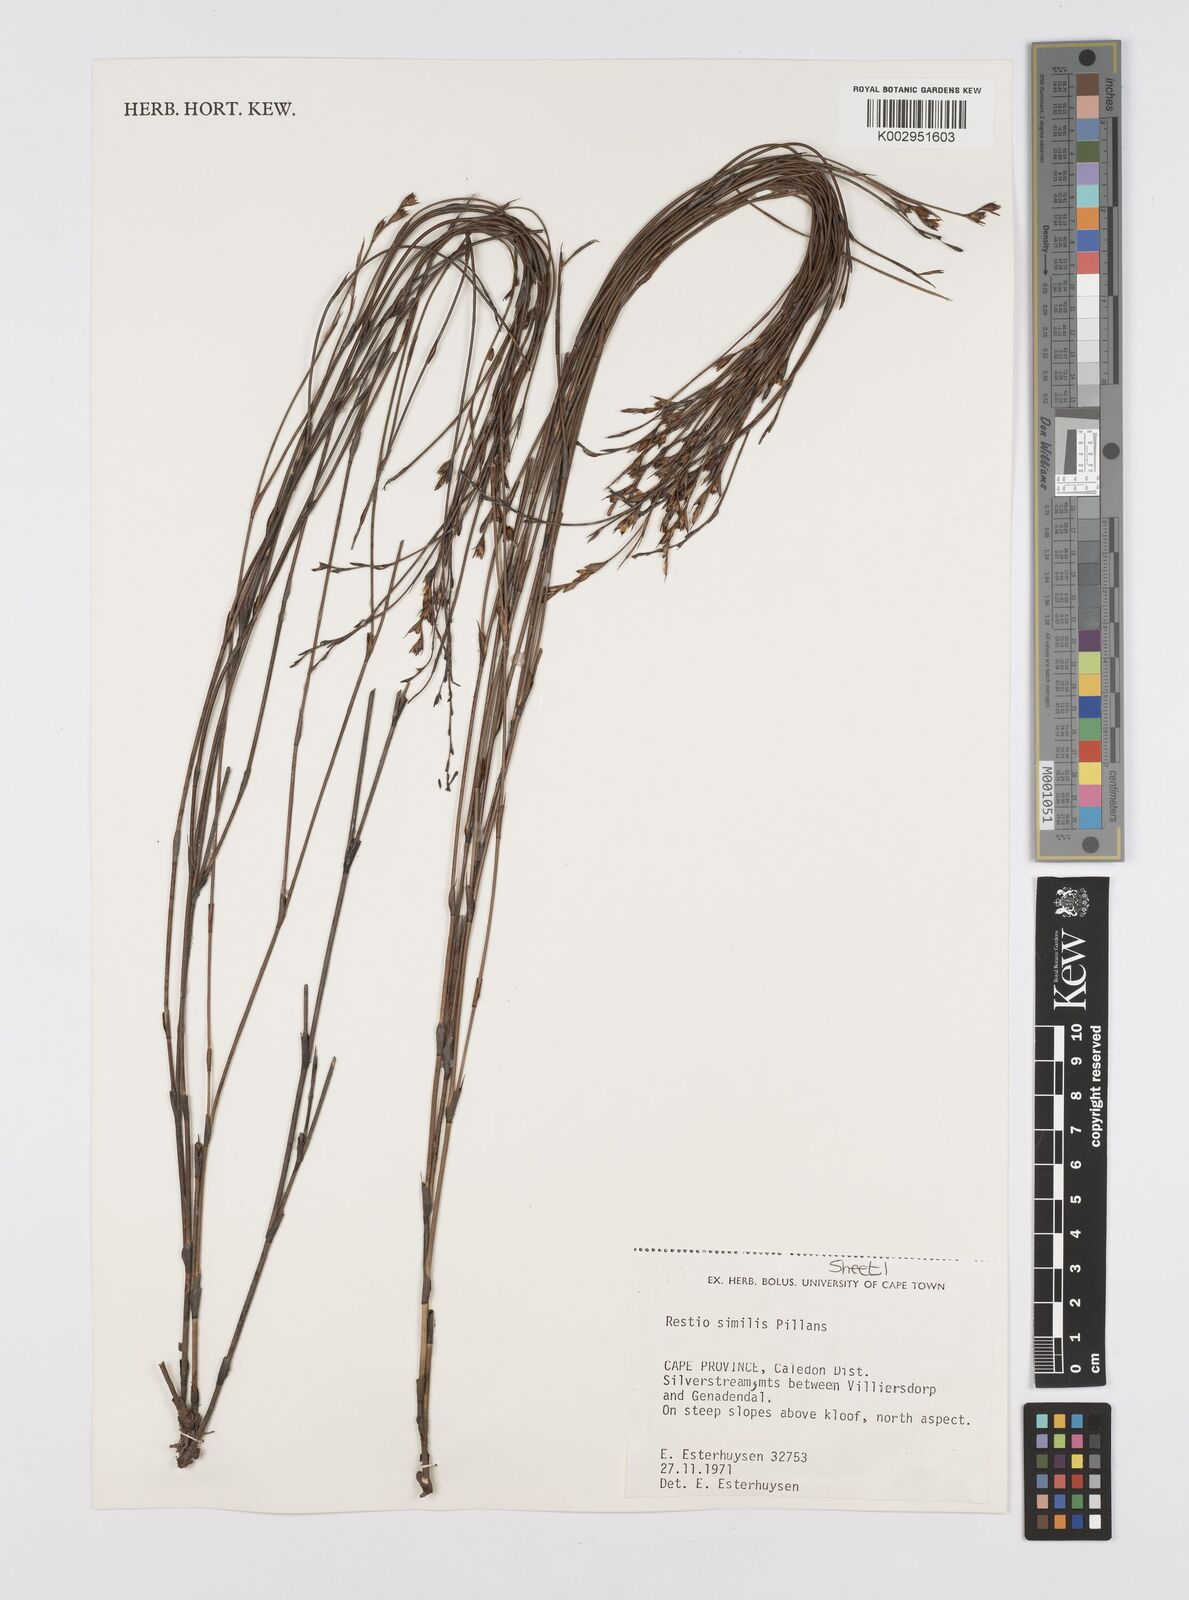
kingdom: Plantae
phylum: Tracheophyta
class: Liliopsida
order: Poales
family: Restionaceae
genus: Restio
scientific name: Restio similis
